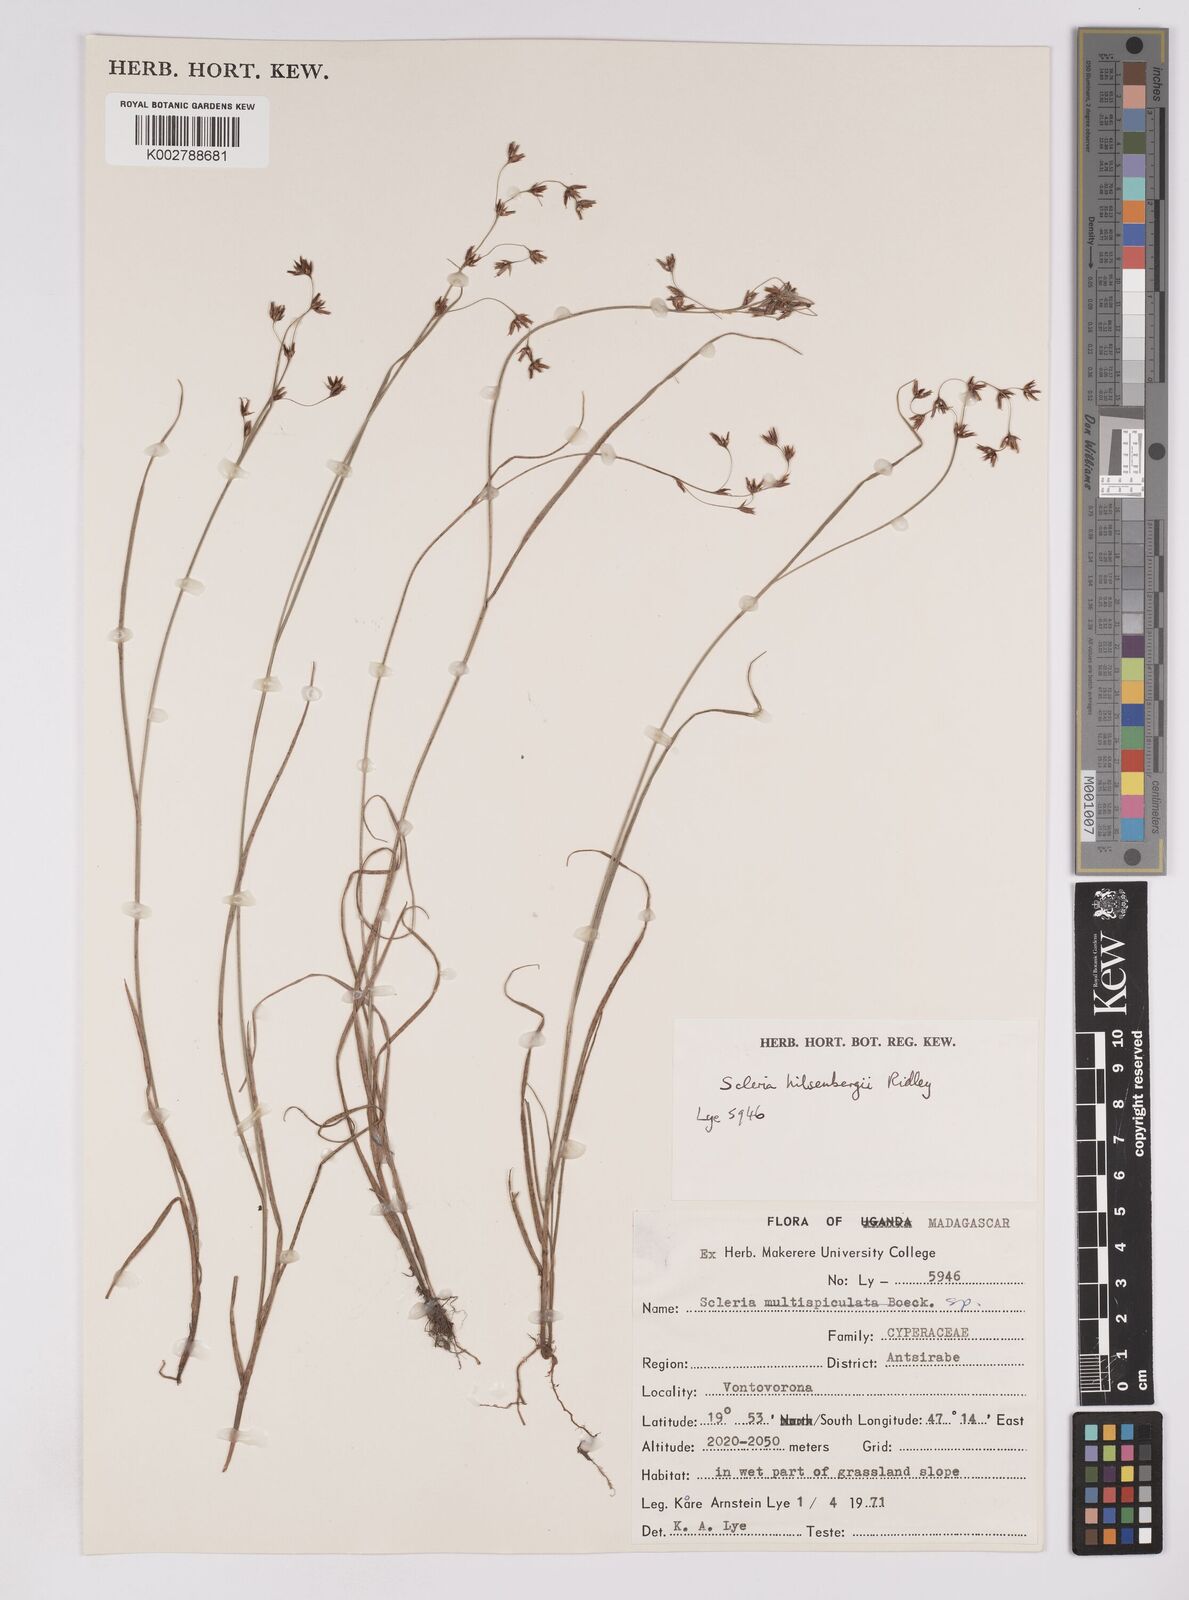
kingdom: Plantae
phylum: Tracheophyta
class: Liliopsida
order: Poales
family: Cyperaceae
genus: Scleria
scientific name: Scleria
